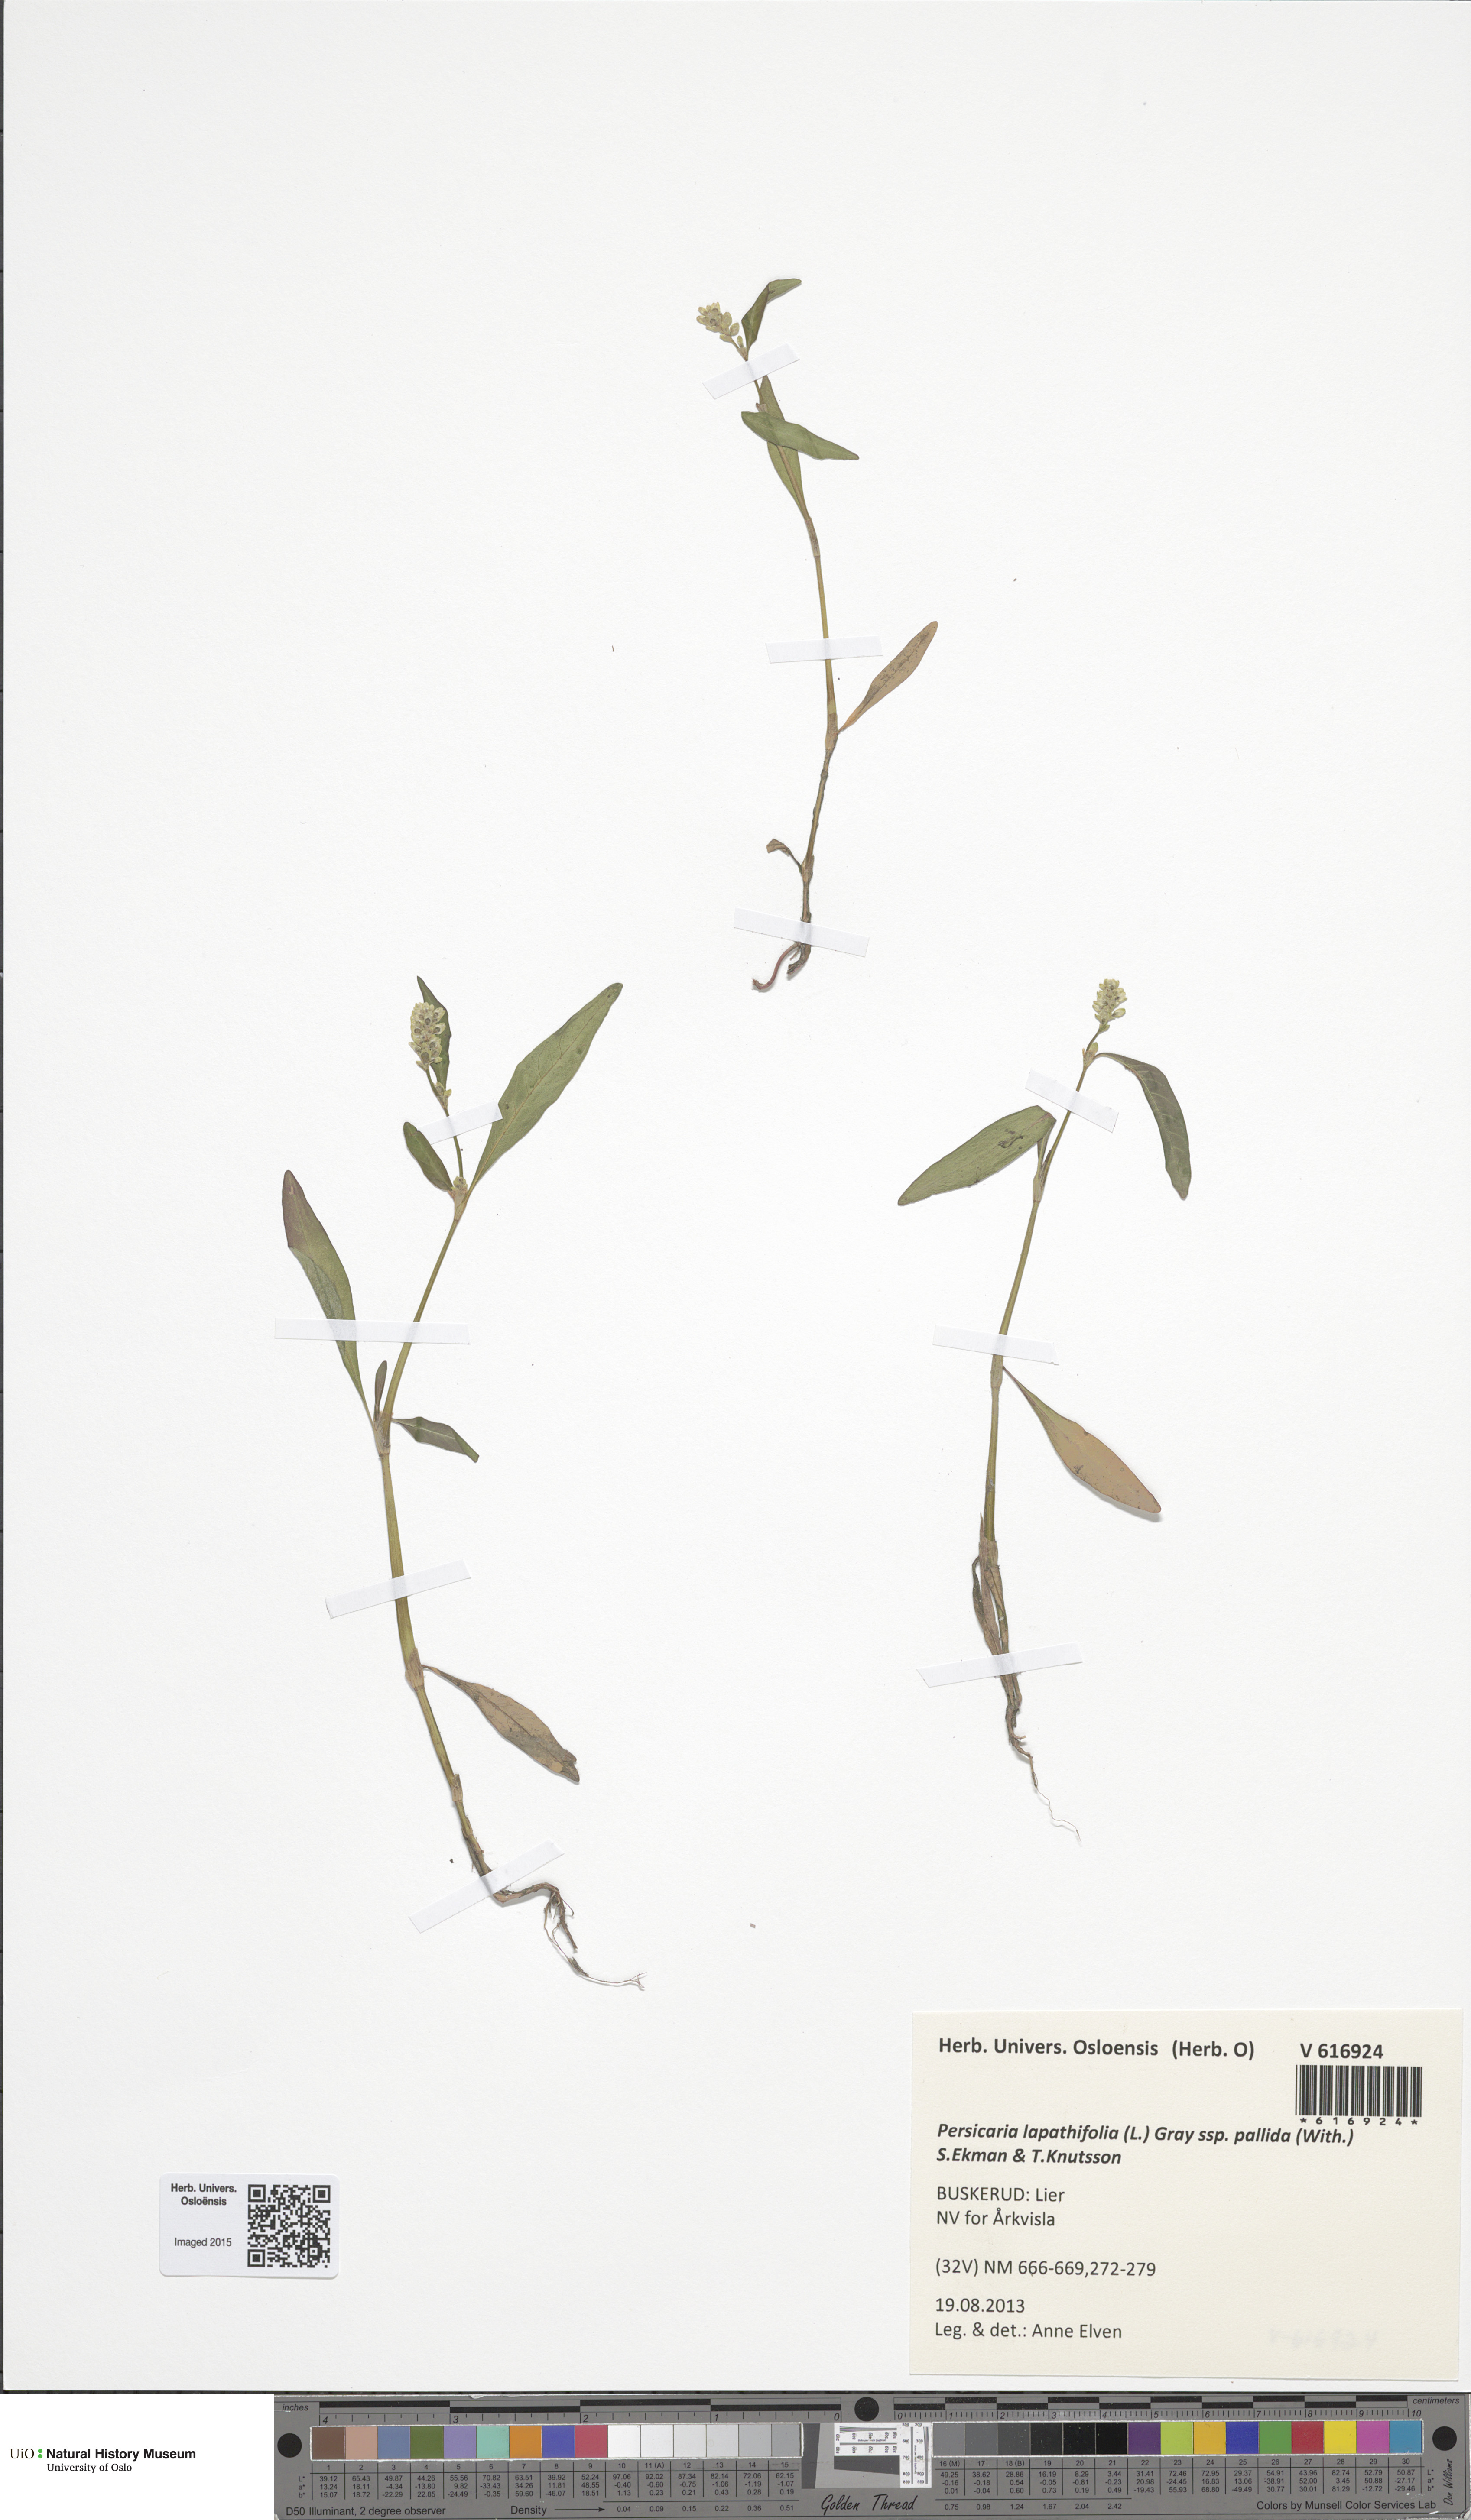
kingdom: Plantae
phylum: Tracheophyta
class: Magnoliopsida
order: Caryophyllales
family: Polygonaceae
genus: Persicaria
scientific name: Persicaria lapathifolia
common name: Curlytop knotweed
